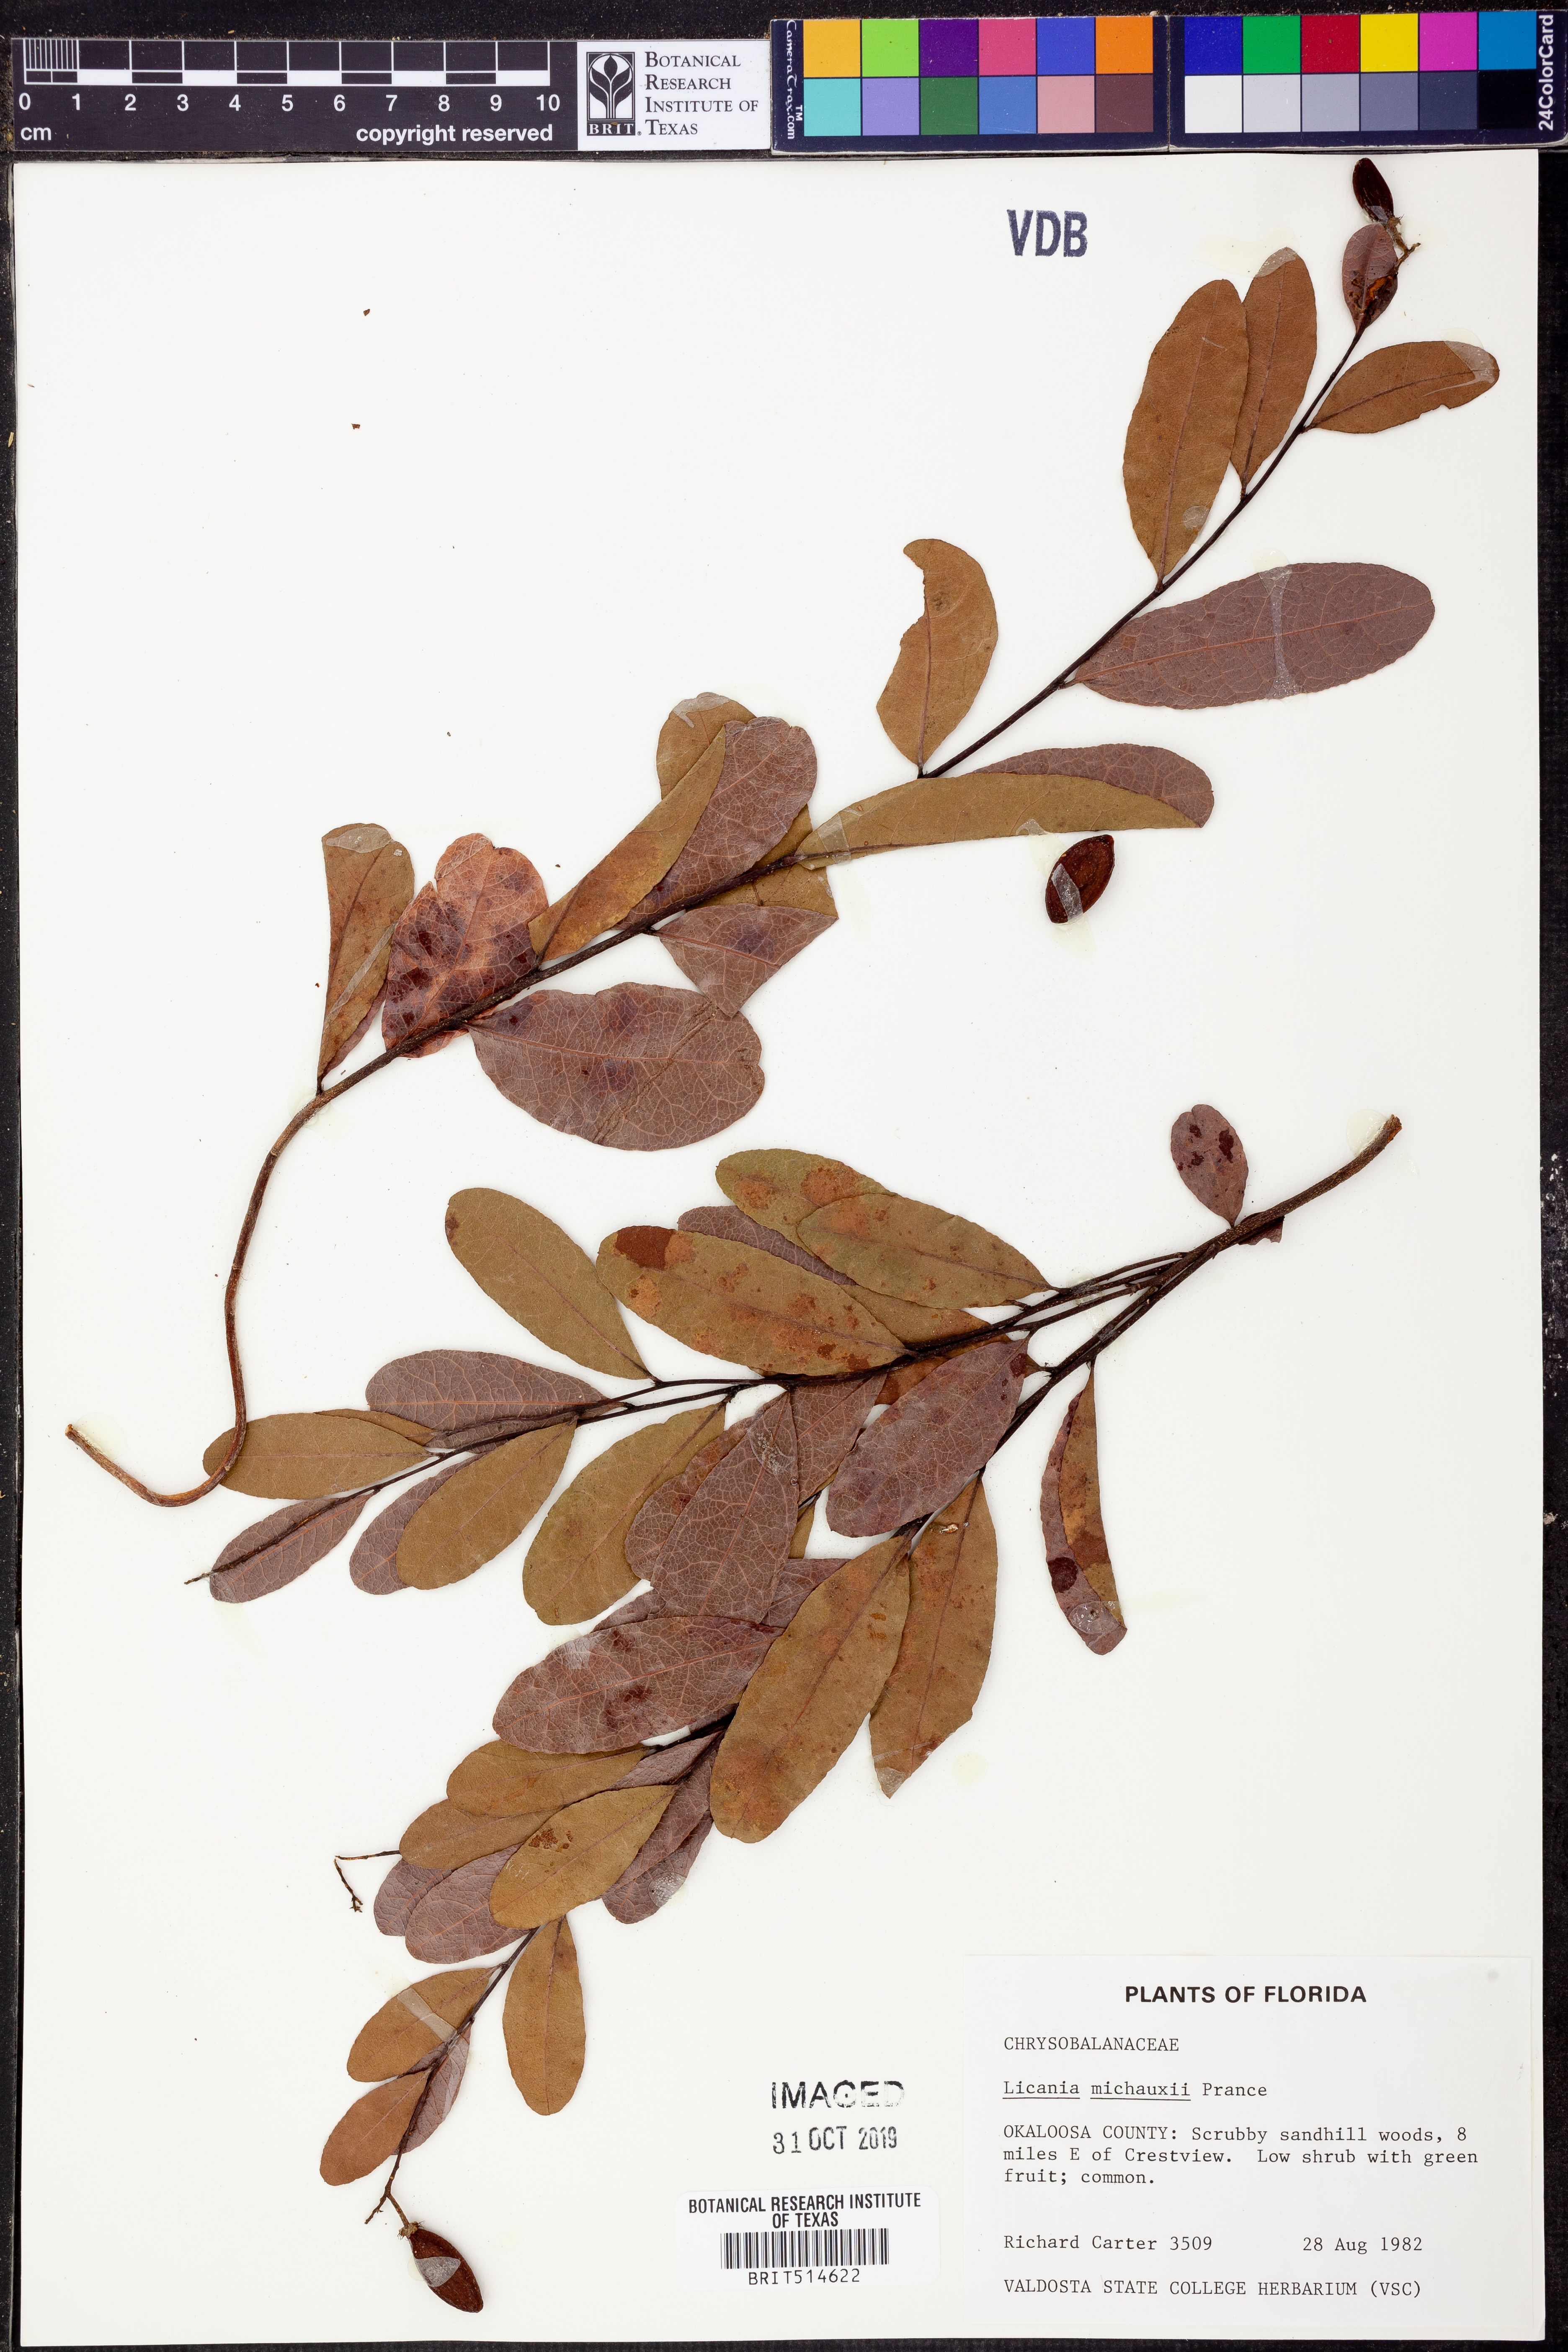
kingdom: Plantae
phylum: Tracheophyta
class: Magnoliopsida
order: Malpighiales
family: Chrysobalanaceae
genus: Geobalanus
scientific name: Geobalanus oblongifolius
